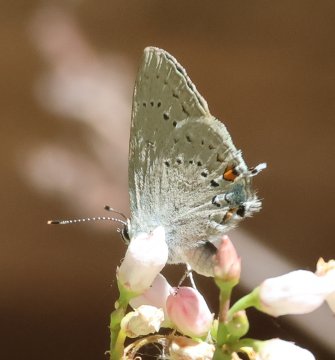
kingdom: Animalia
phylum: Arthropoda
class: Insecta
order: Lepidoptera
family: Lycaenidae
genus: Elkalyce
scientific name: Elkalyce comyntas
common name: Eastern Tailed-Blue
